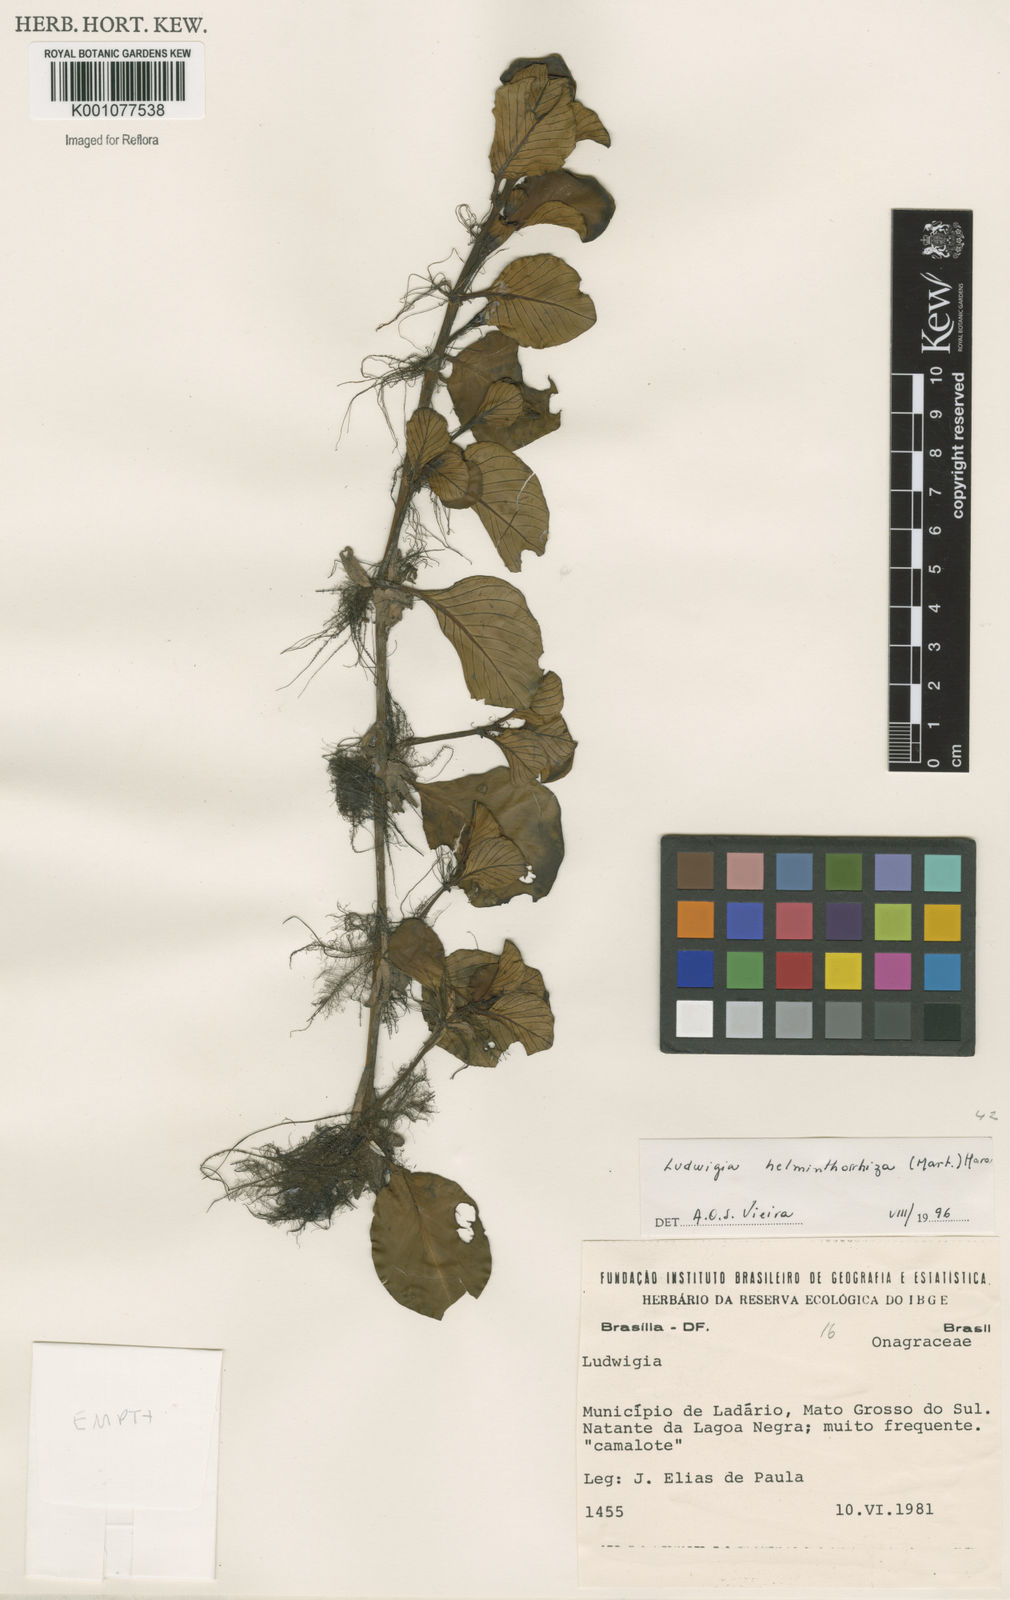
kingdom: Plantae
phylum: Tracheophyta
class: Magnoliopsida
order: Myrtales
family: Onagraceae
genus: Ludwigia
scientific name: Ludwigia helminthorrhiza
